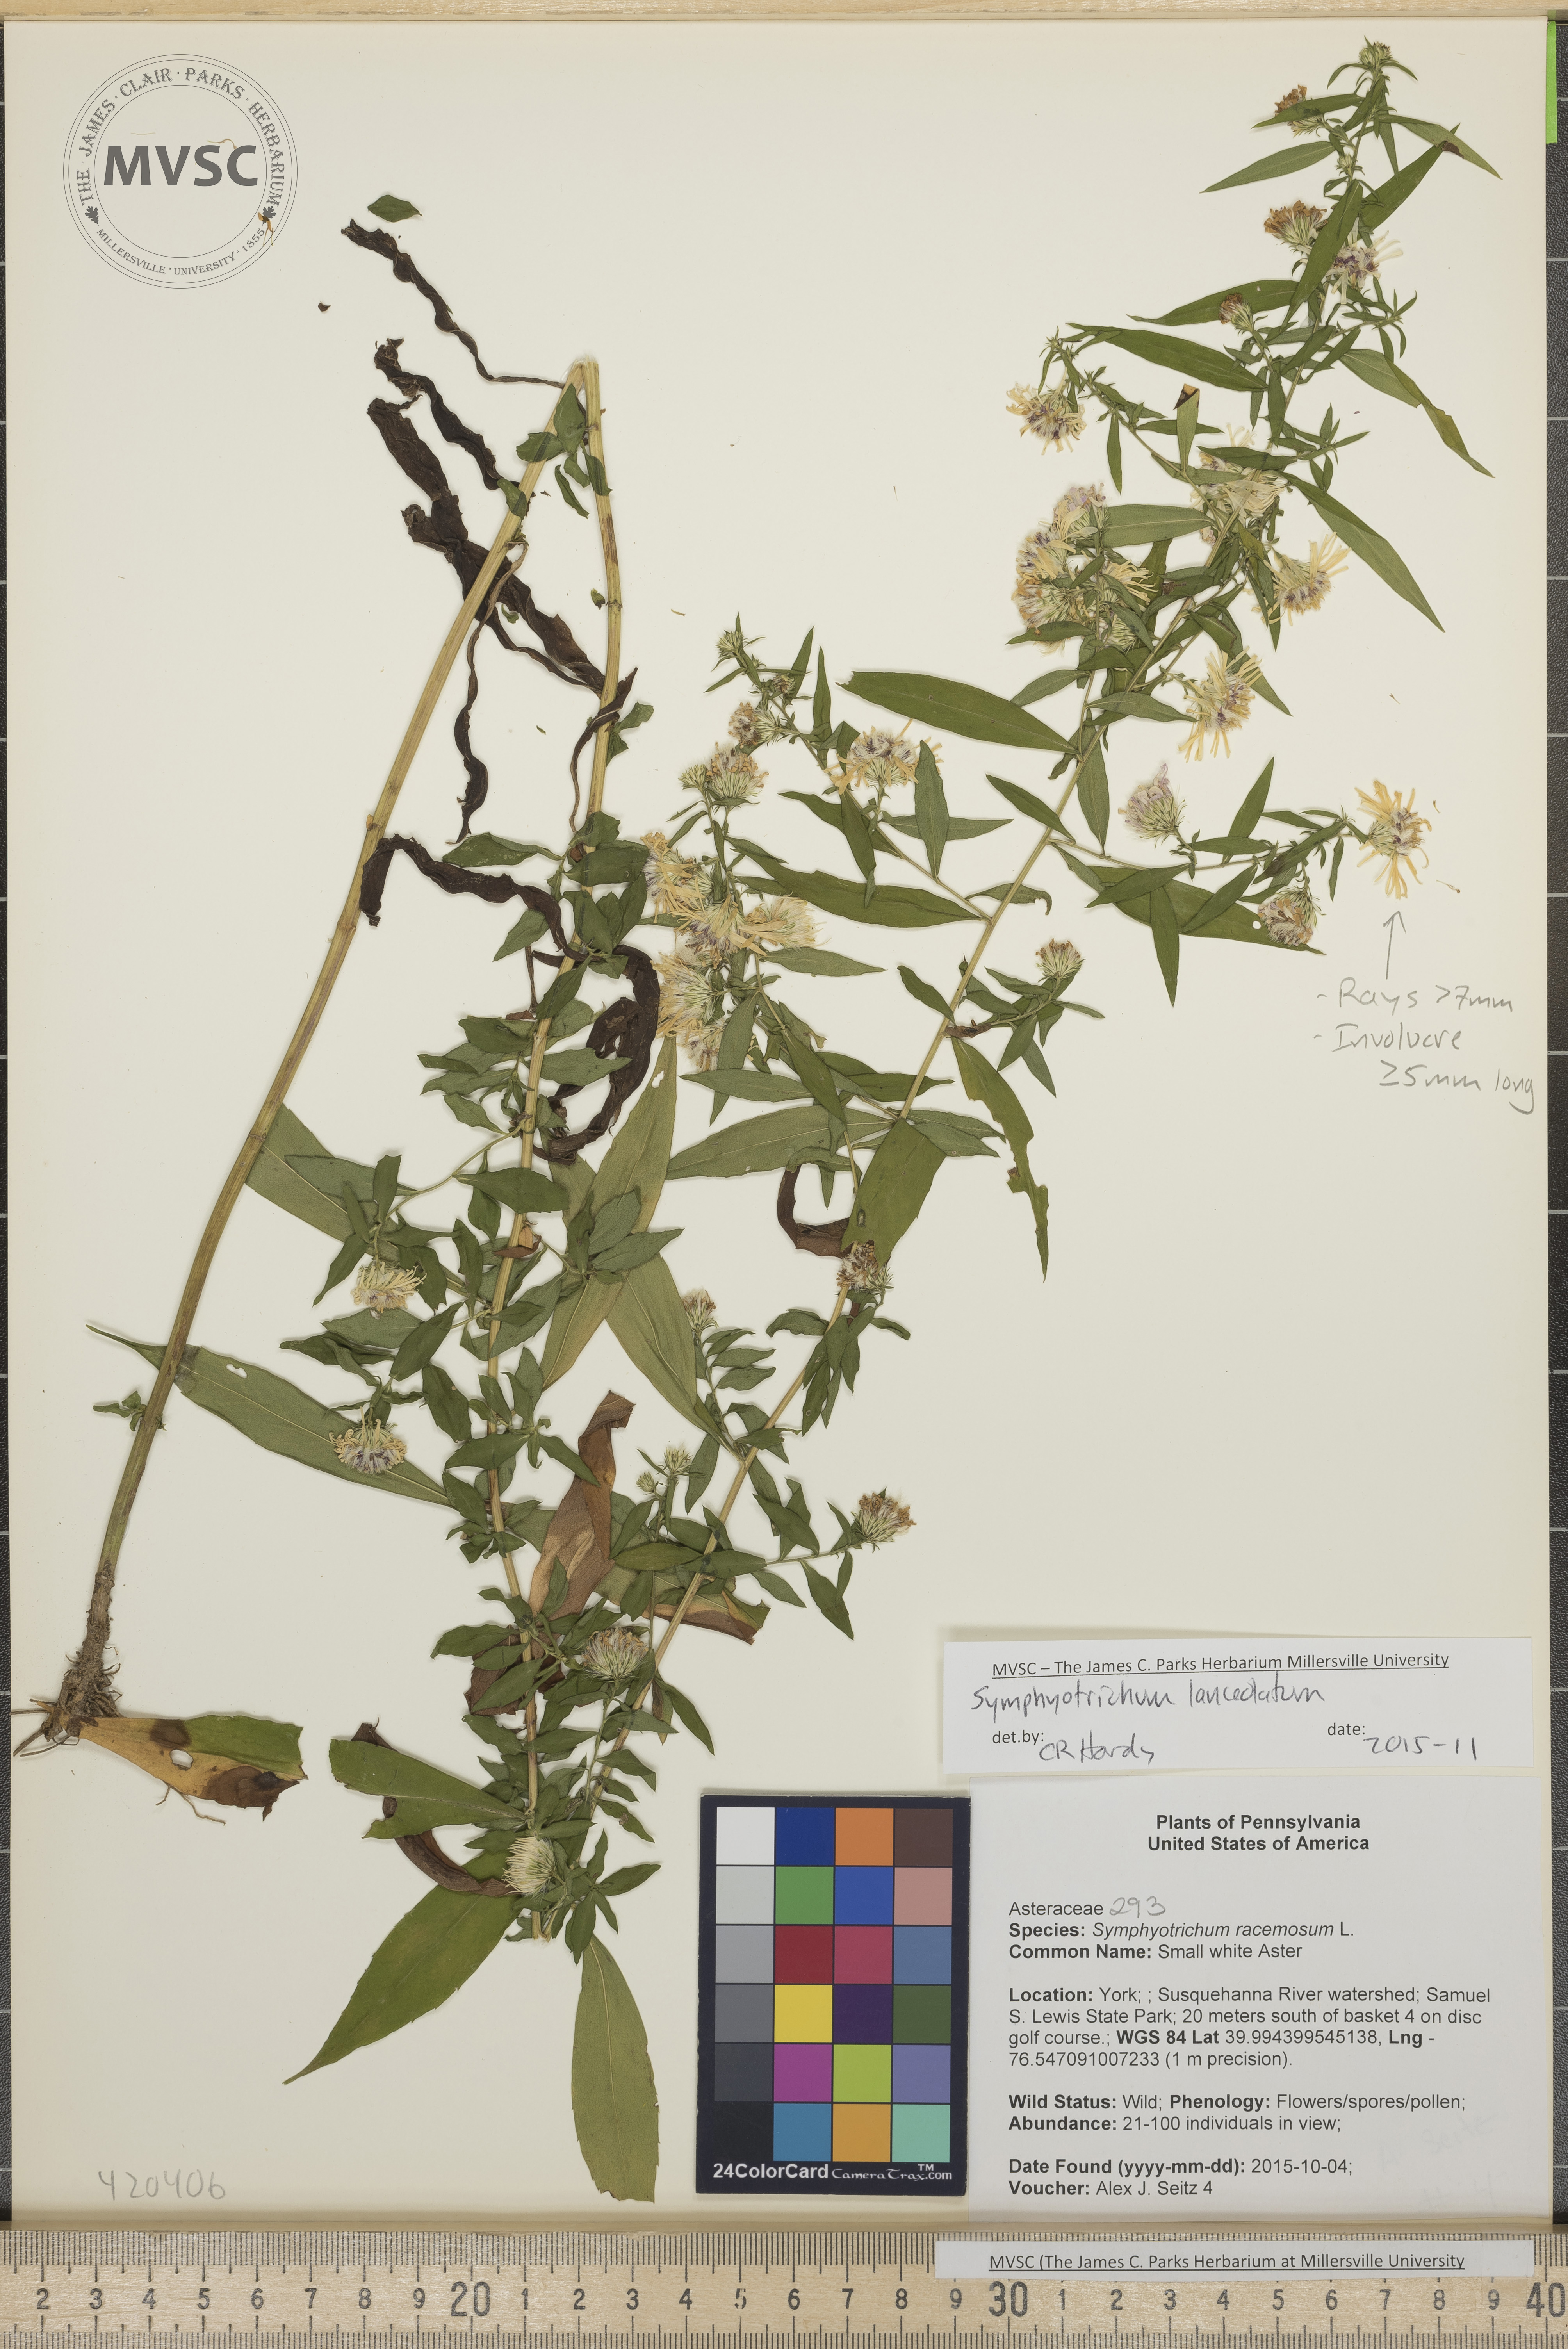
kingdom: Plantae
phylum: Tracheophyta
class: Magnoliopsida
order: Asterales
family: Asteraceae
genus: Symphyotrichum
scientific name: Symphyotrichum lanceolatum
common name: Aster
